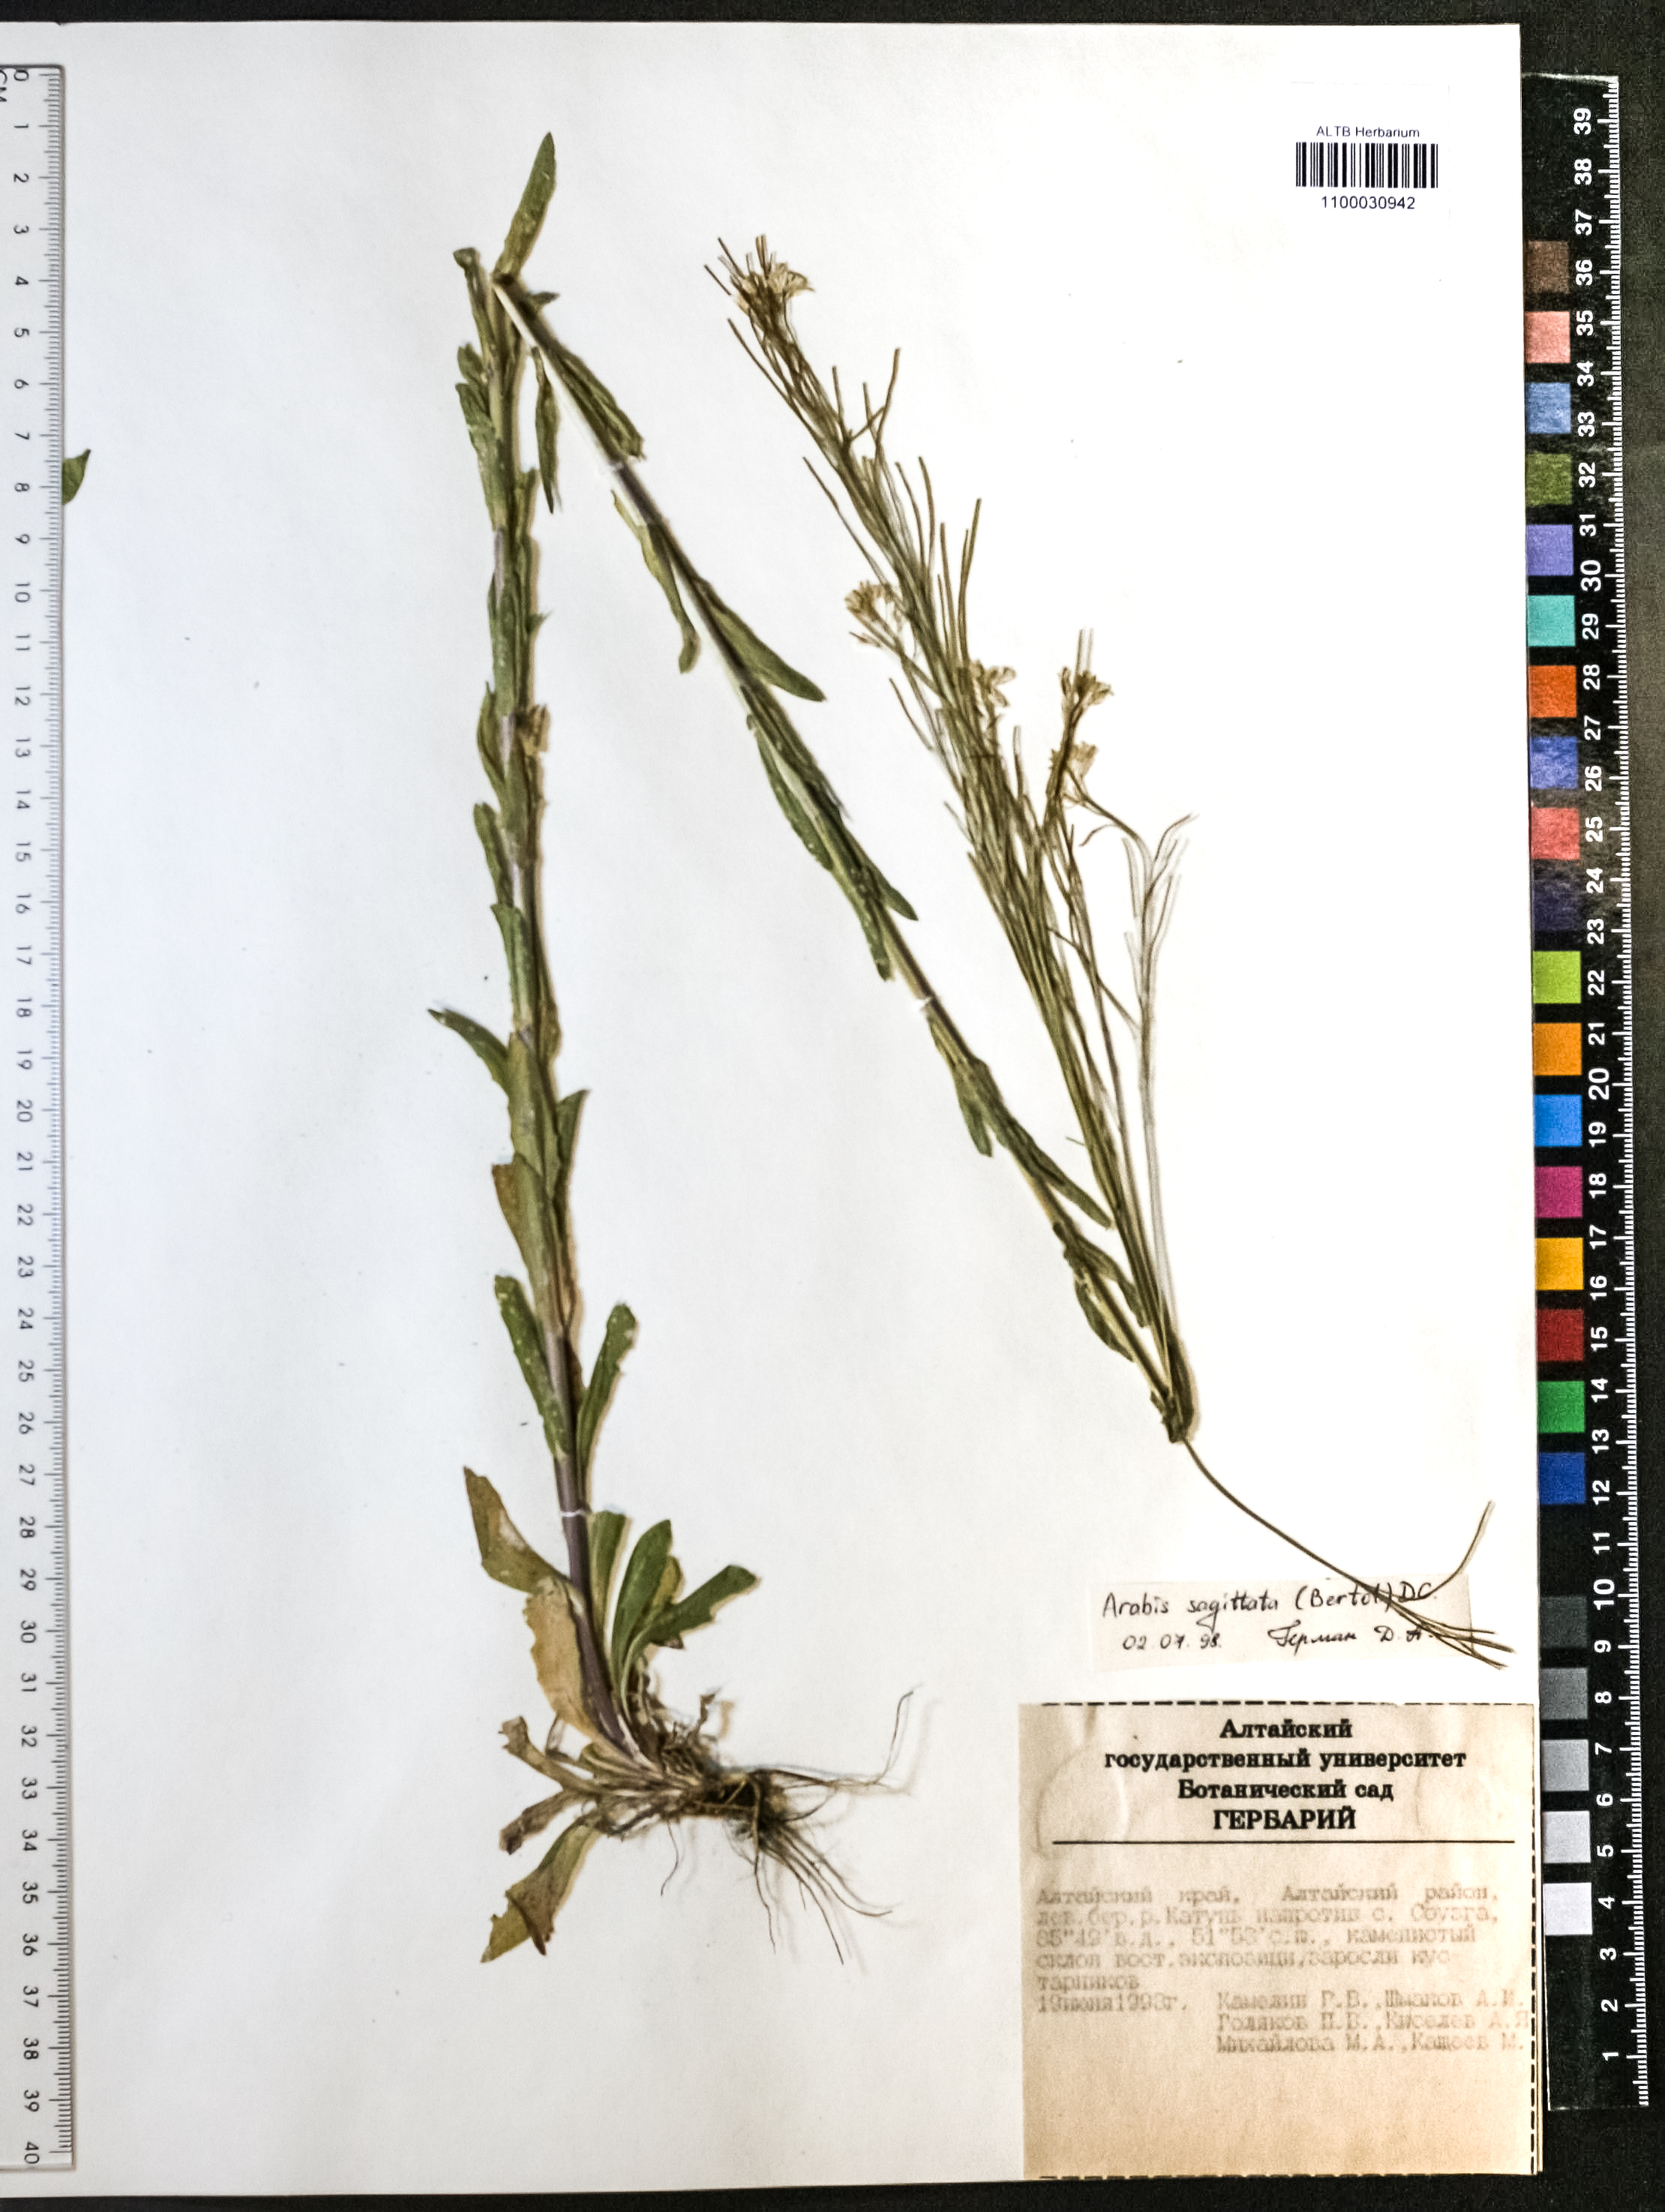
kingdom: Plantae
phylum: Tracheophyta
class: Magnoliopsida
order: Brassicales
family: Brassicaceae
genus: Arabis
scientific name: Arabis sagittata
